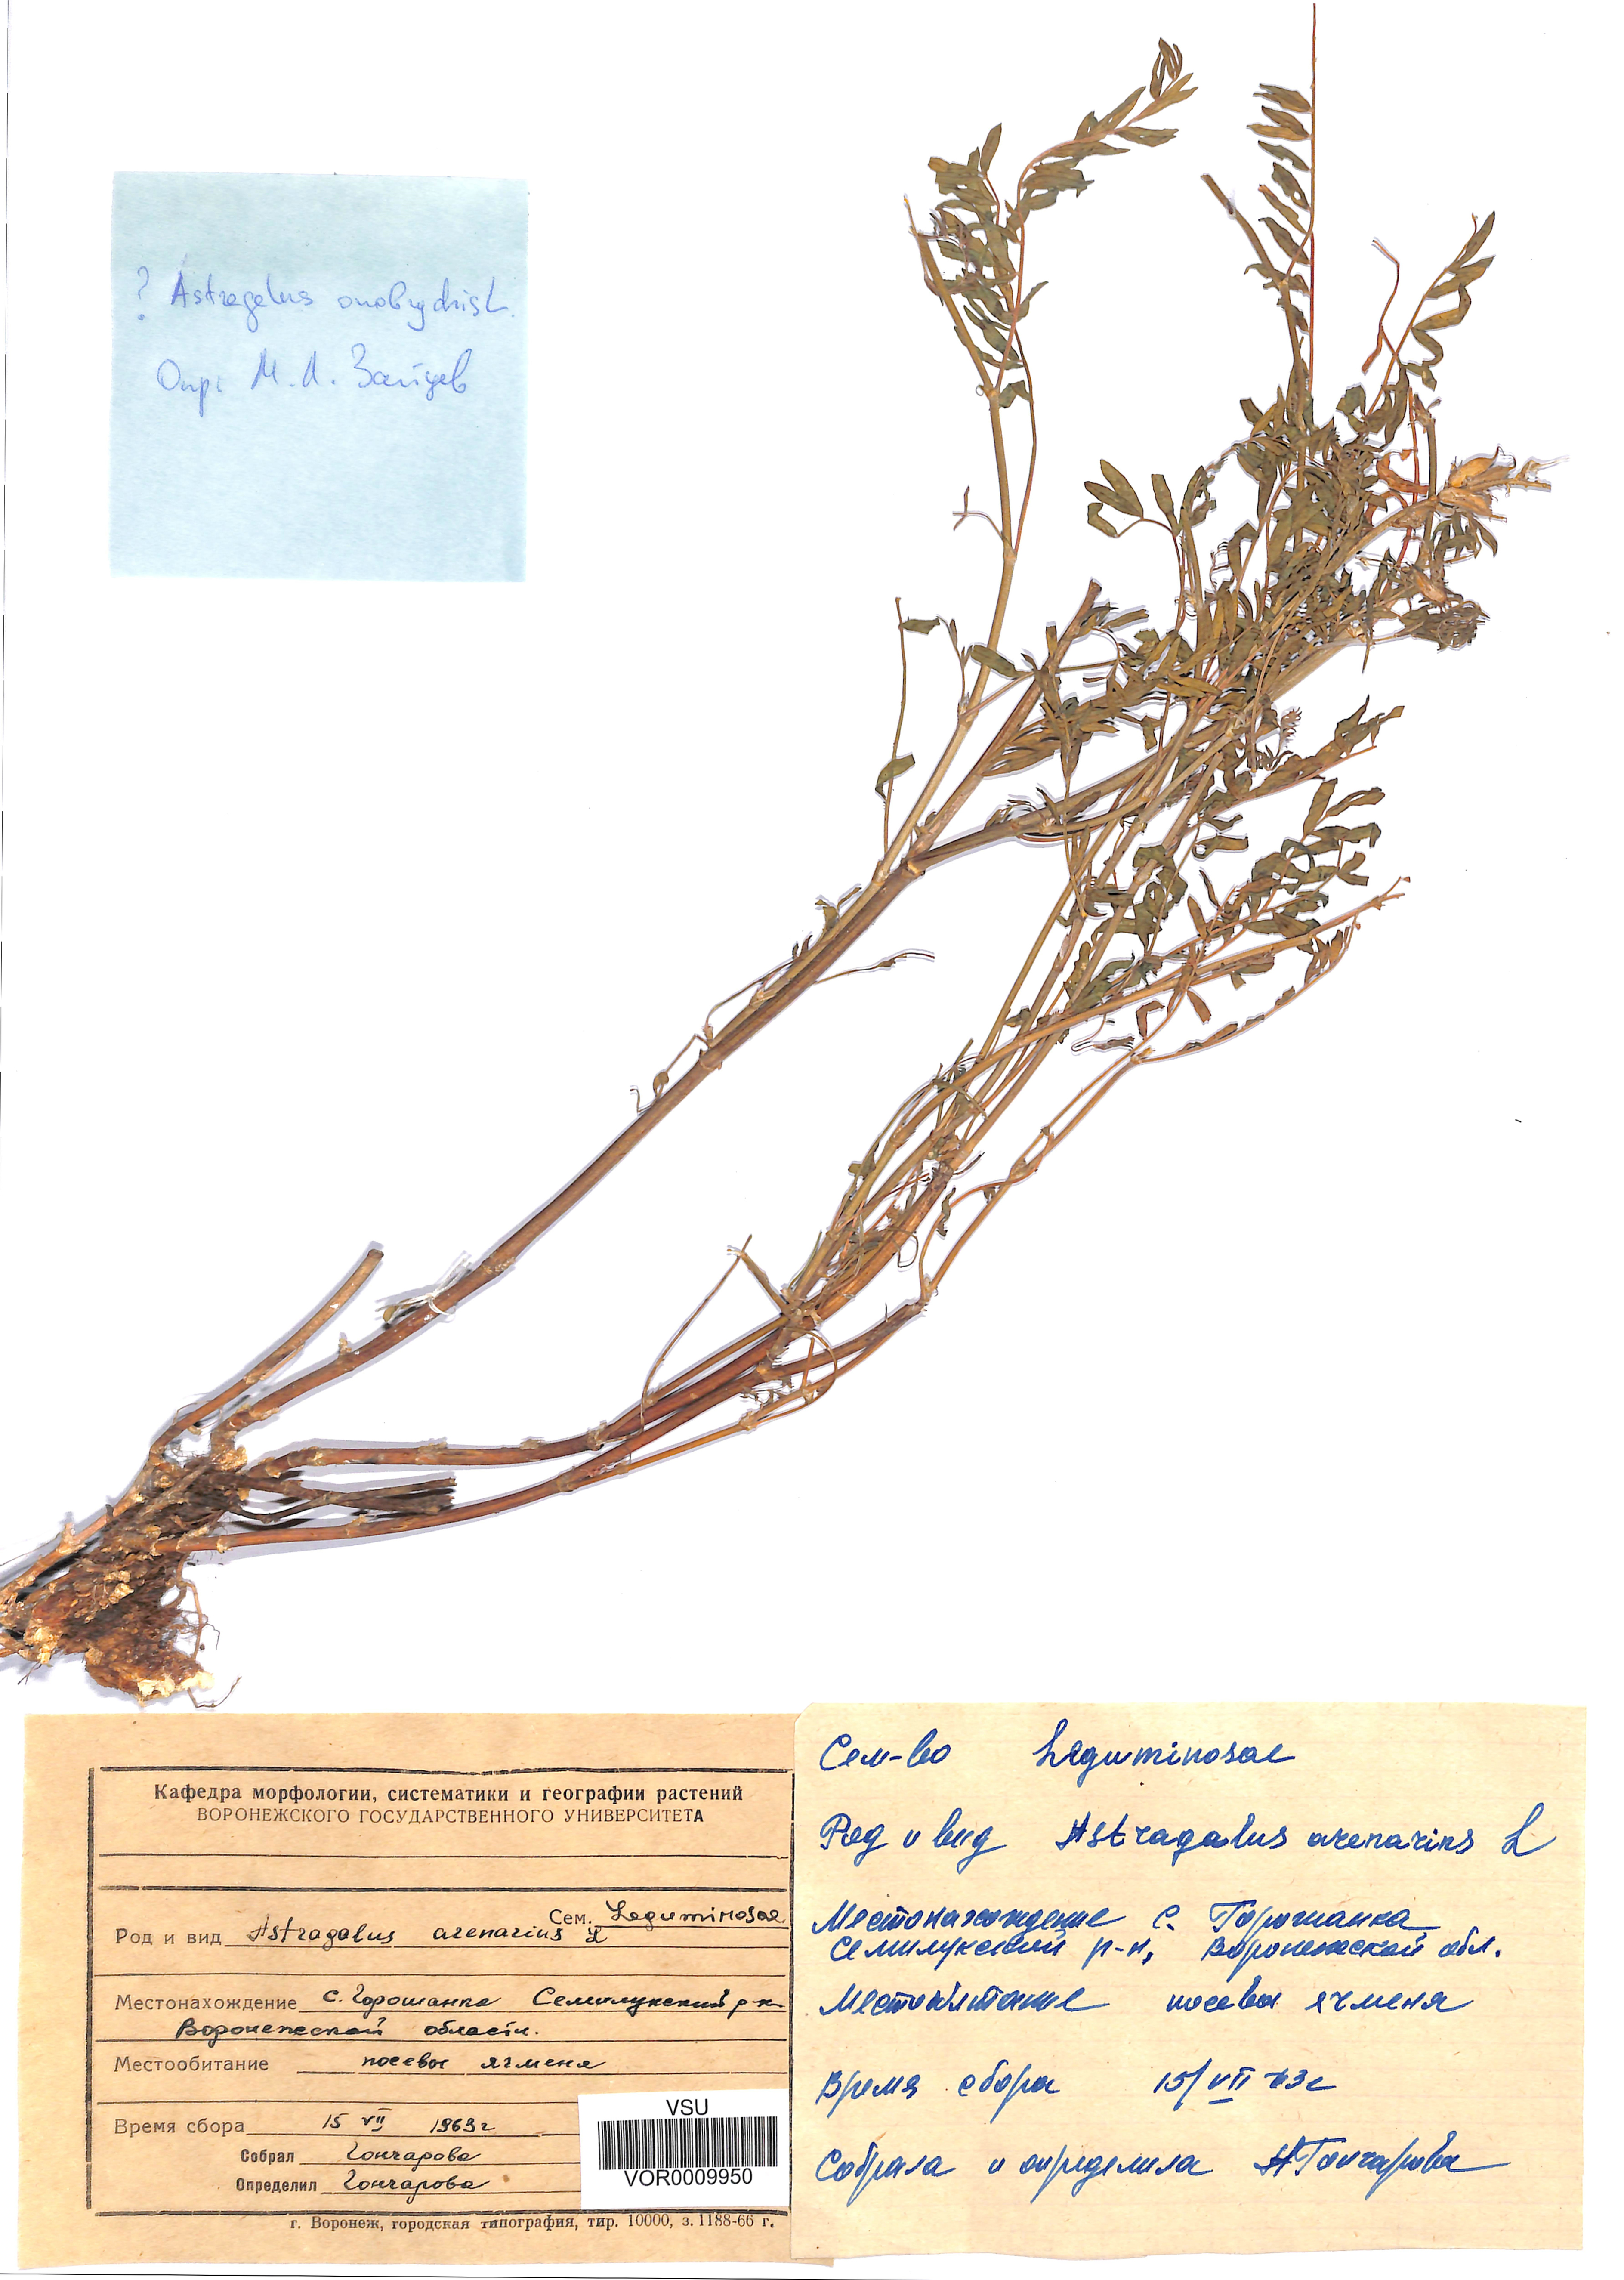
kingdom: Plantae
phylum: Tracheophyta
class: Magnoliopsida
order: Fabales
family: Fabaceae
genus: Astragalus
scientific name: Astragalus onobrychis
